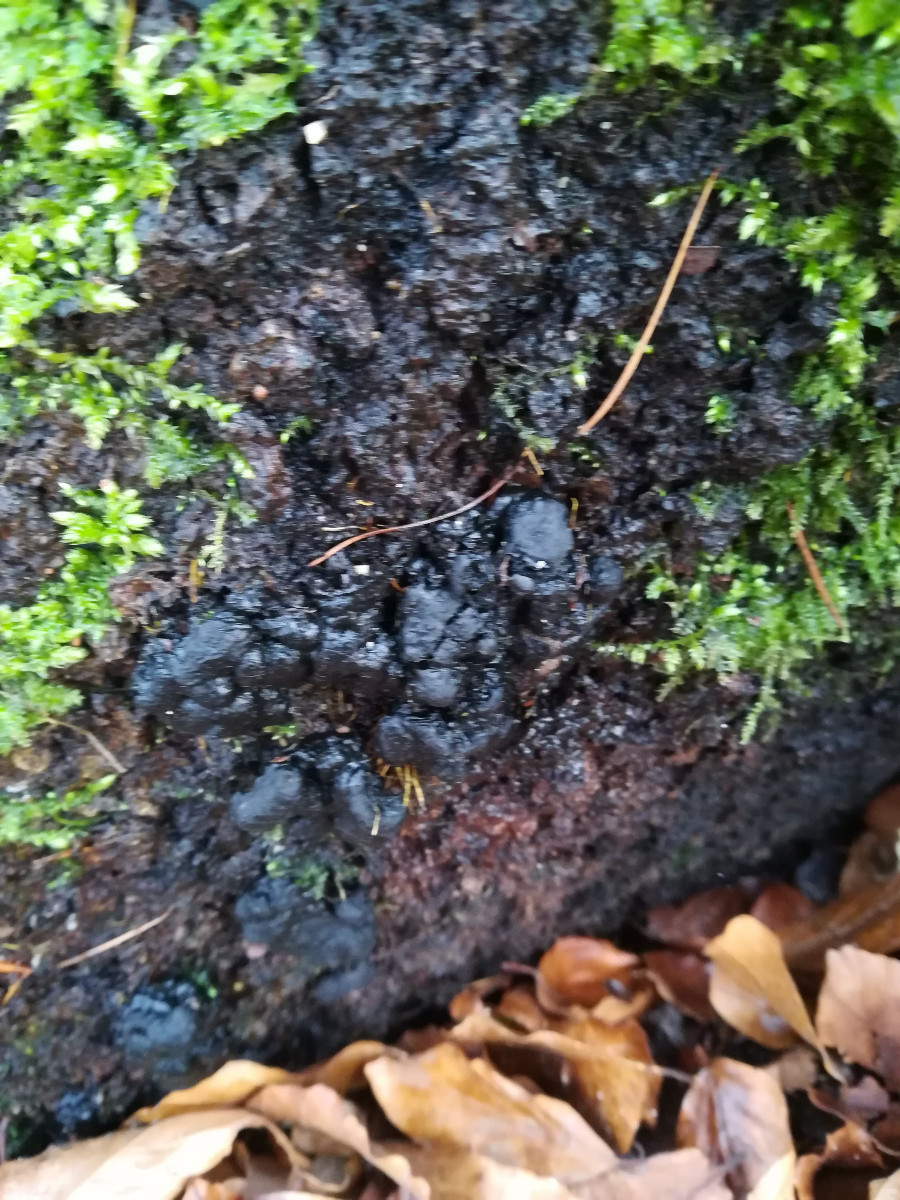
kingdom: Fungi
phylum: Ascomycota
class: Sordariomycetes
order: Xylariales
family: Xylariaceae
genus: Kretzschmaria
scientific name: Kretzschmaria deusta
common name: stor kulsvamp
